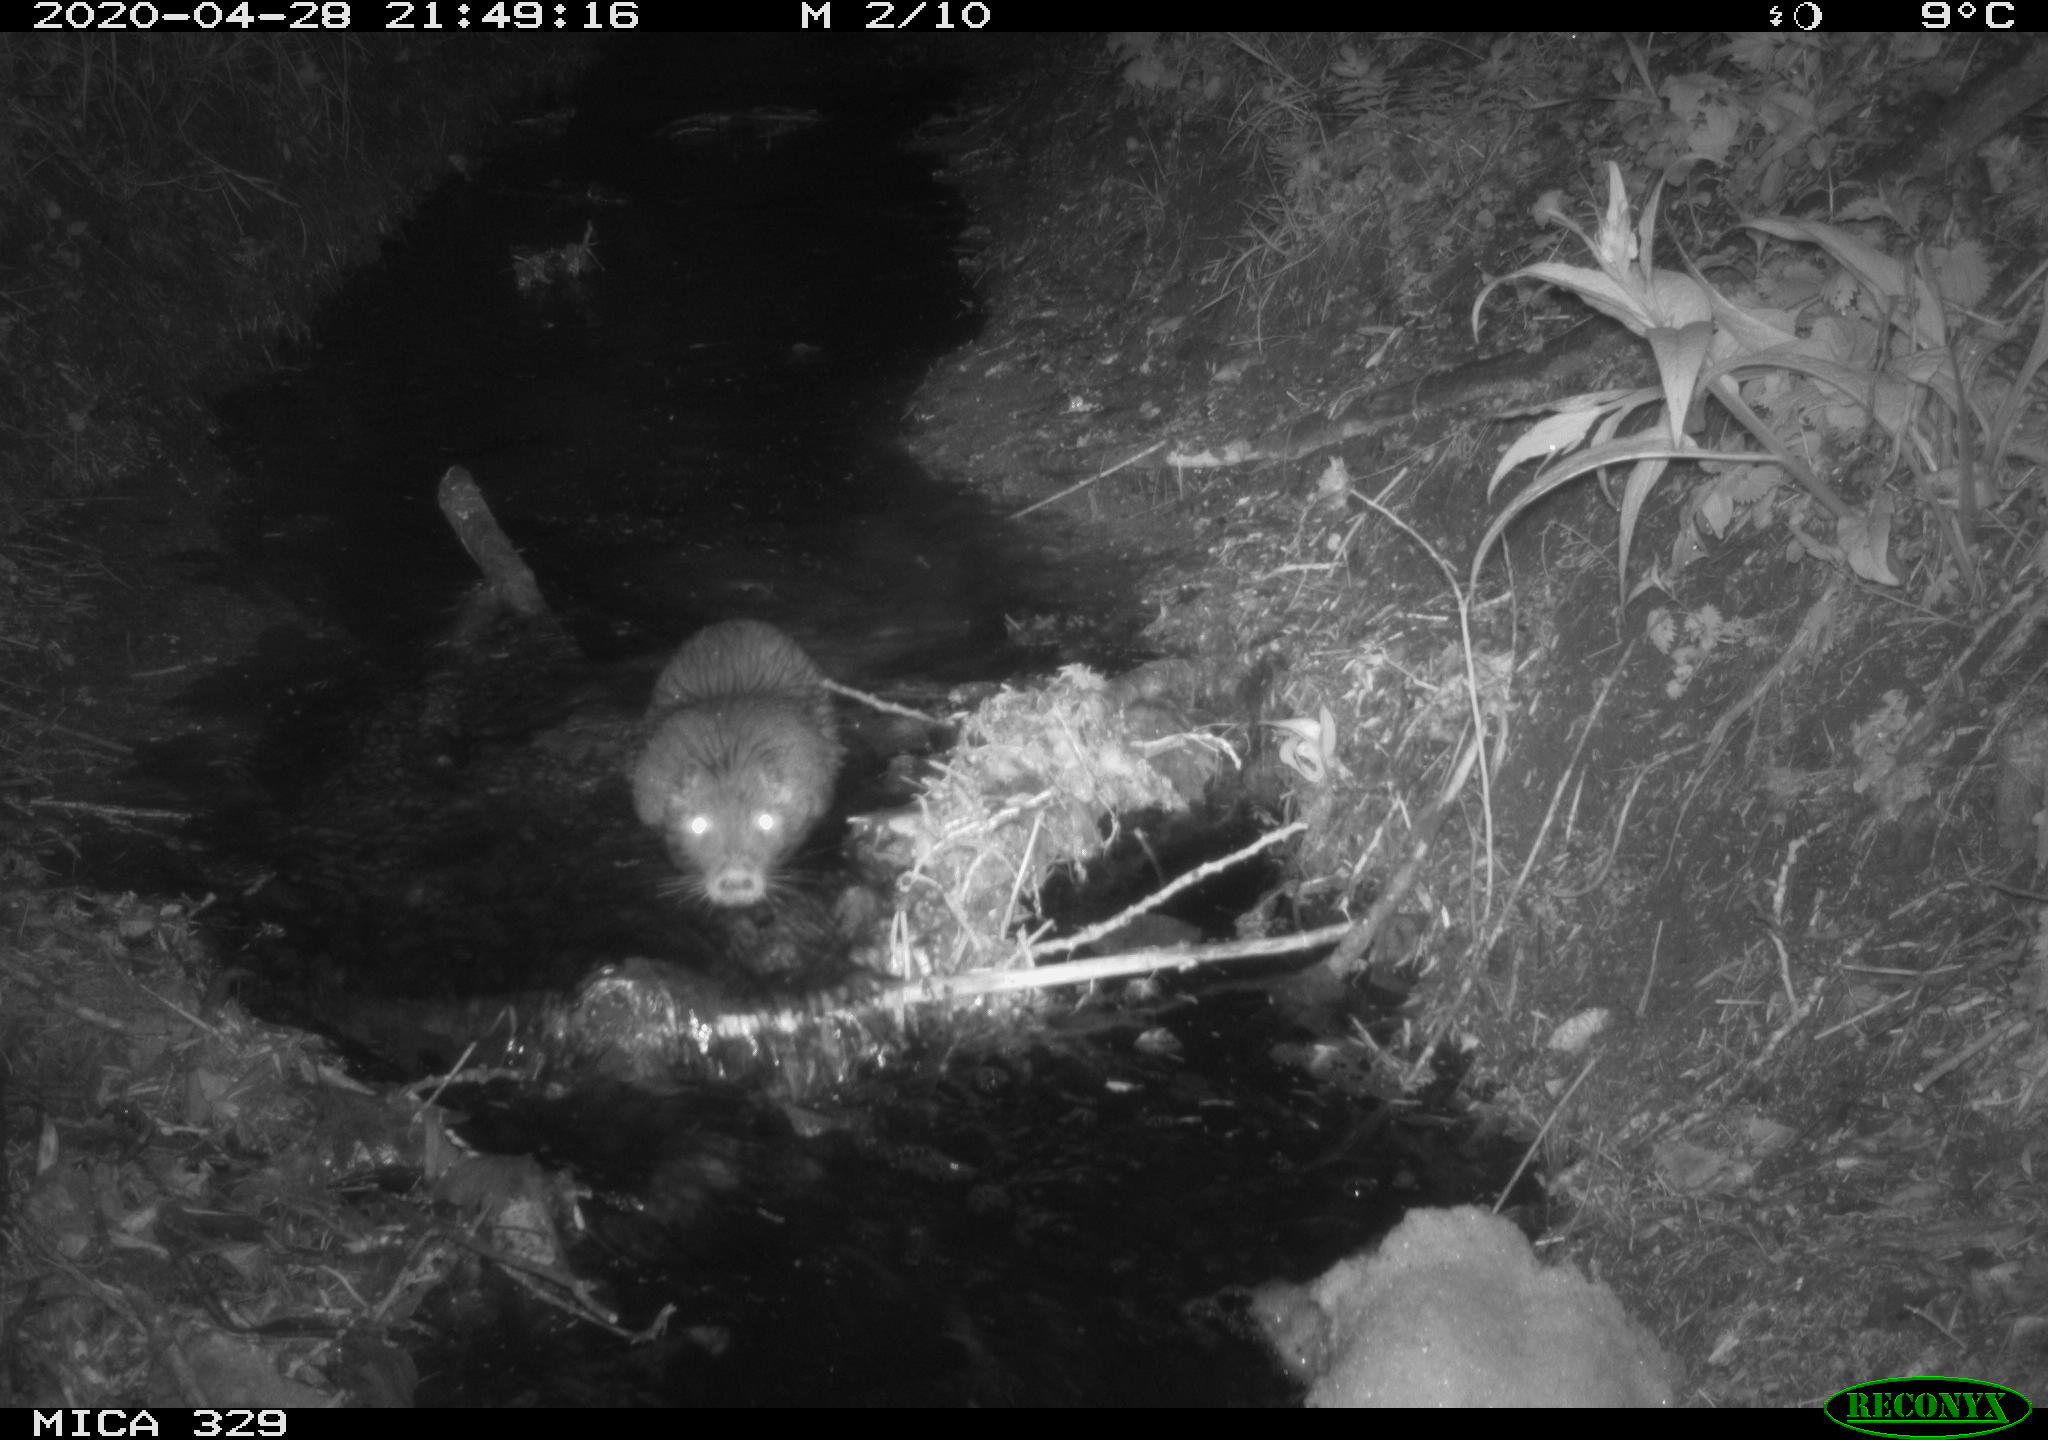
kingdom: Animalia
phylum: Chordata
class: Mammalia
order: Rodentia
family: Myocastoridae
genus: Myocastor
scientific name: Myocastor coypus
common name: Coypu
